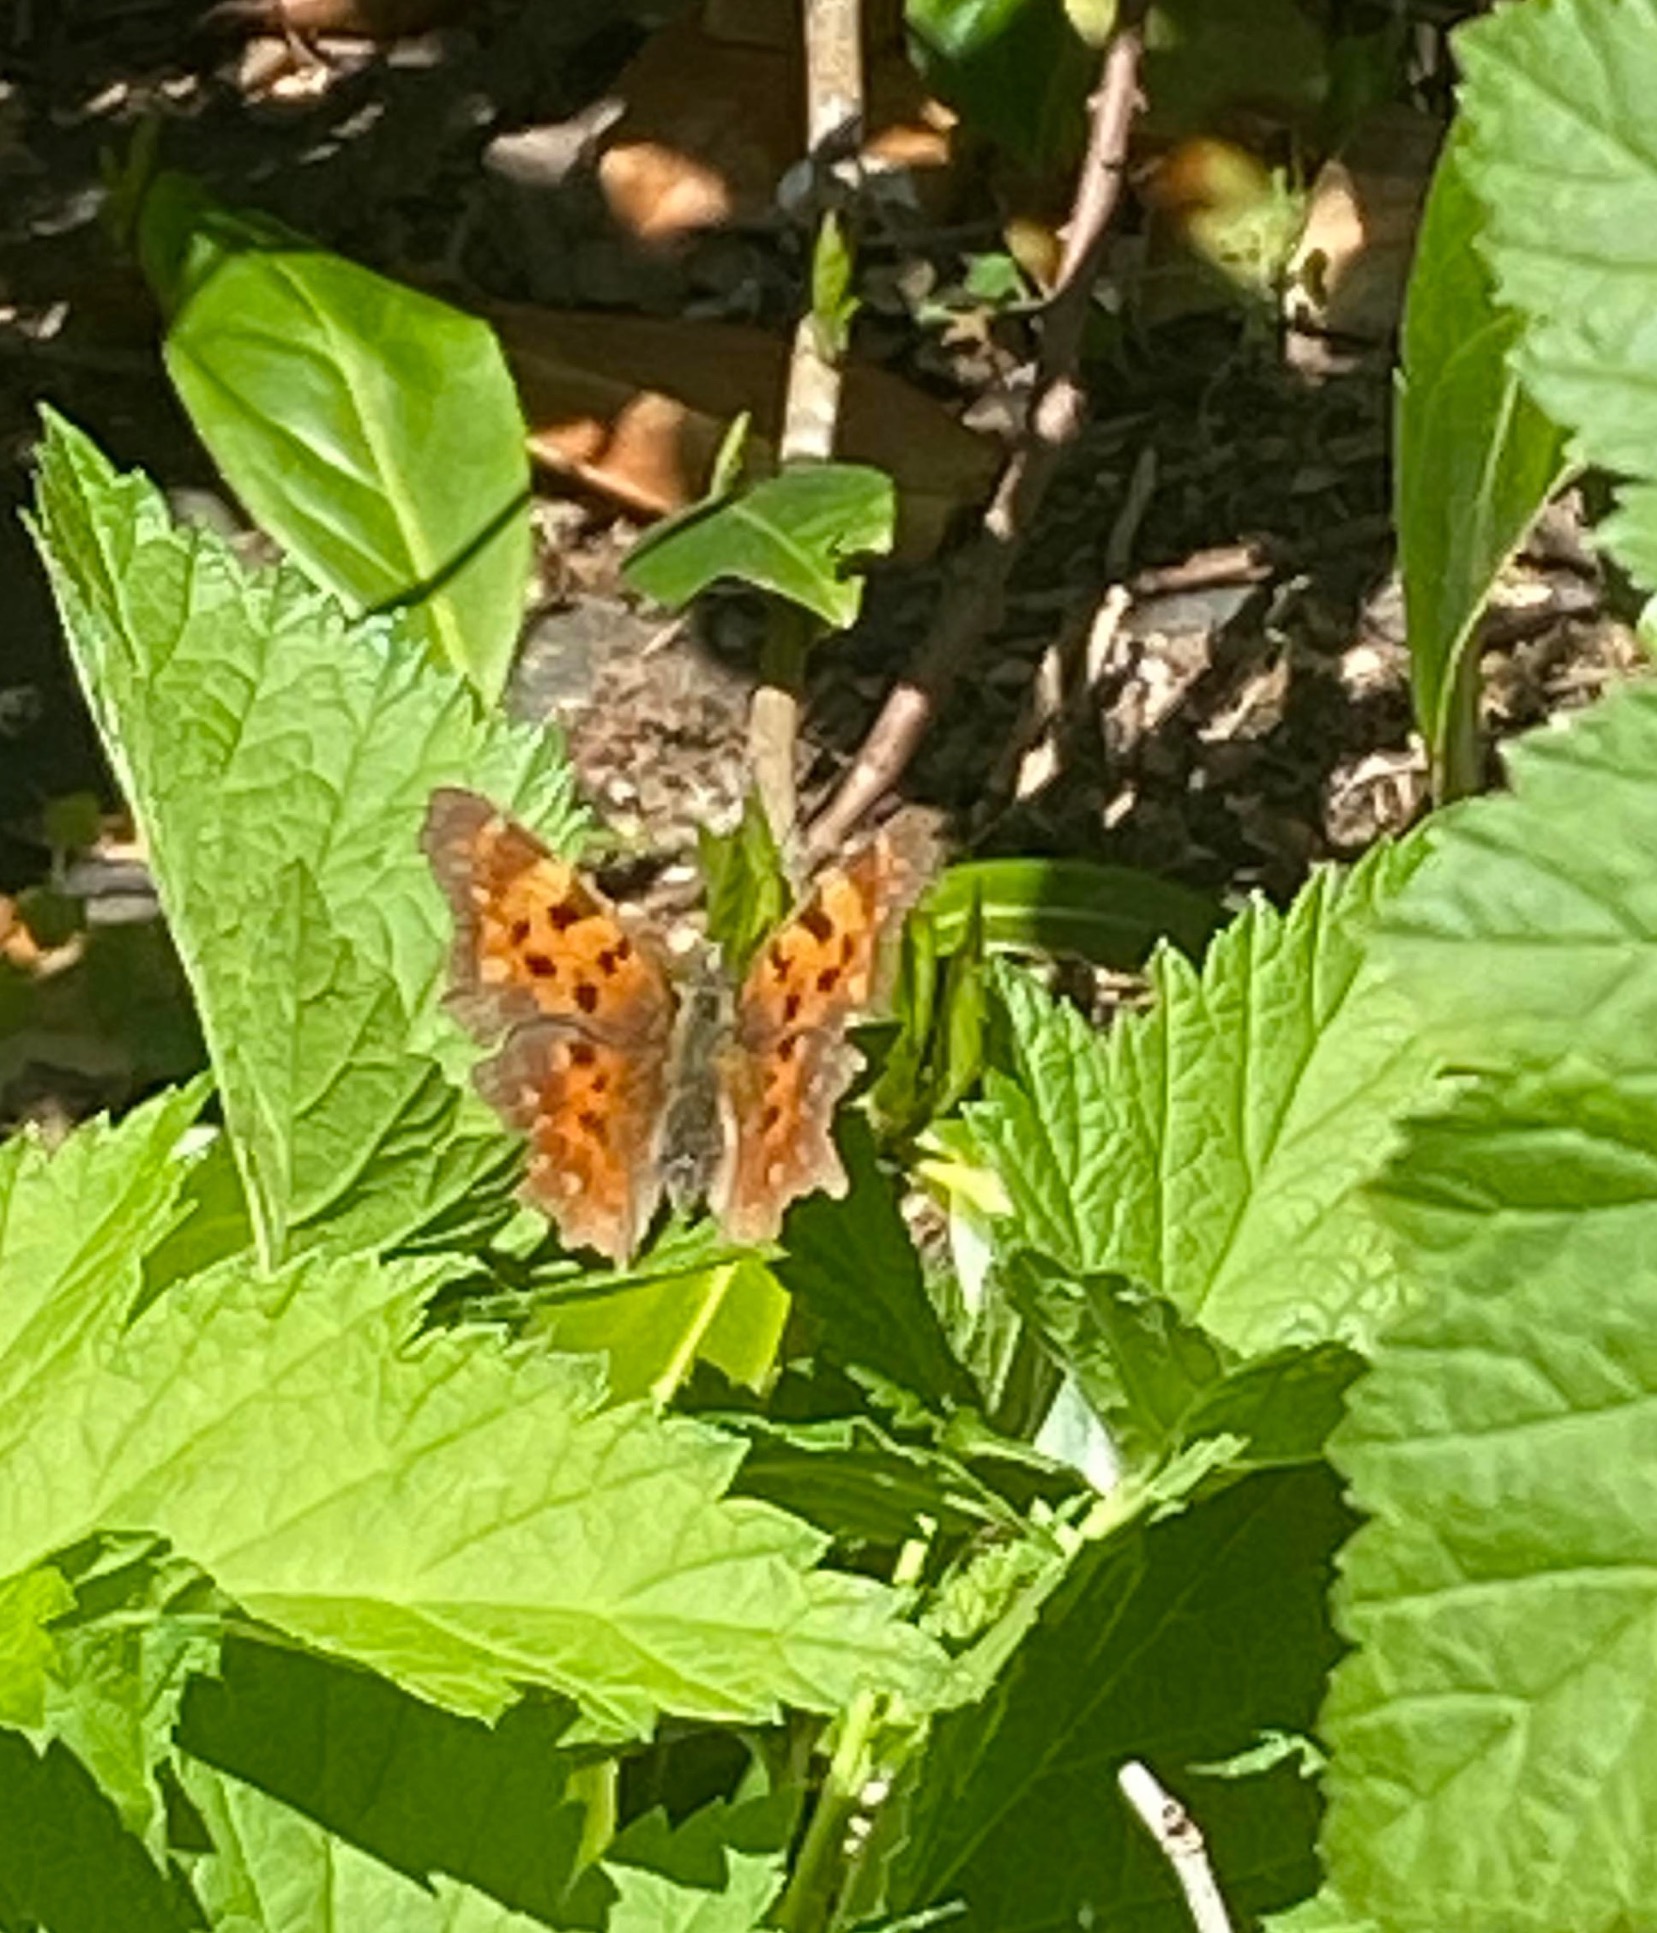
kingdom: Animalia
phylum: Arthropoda
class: Insecta
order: Lepidoptera
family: Nymphalidae
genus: Polygonia
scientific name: Polygonia c-album
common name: Det hvide C
